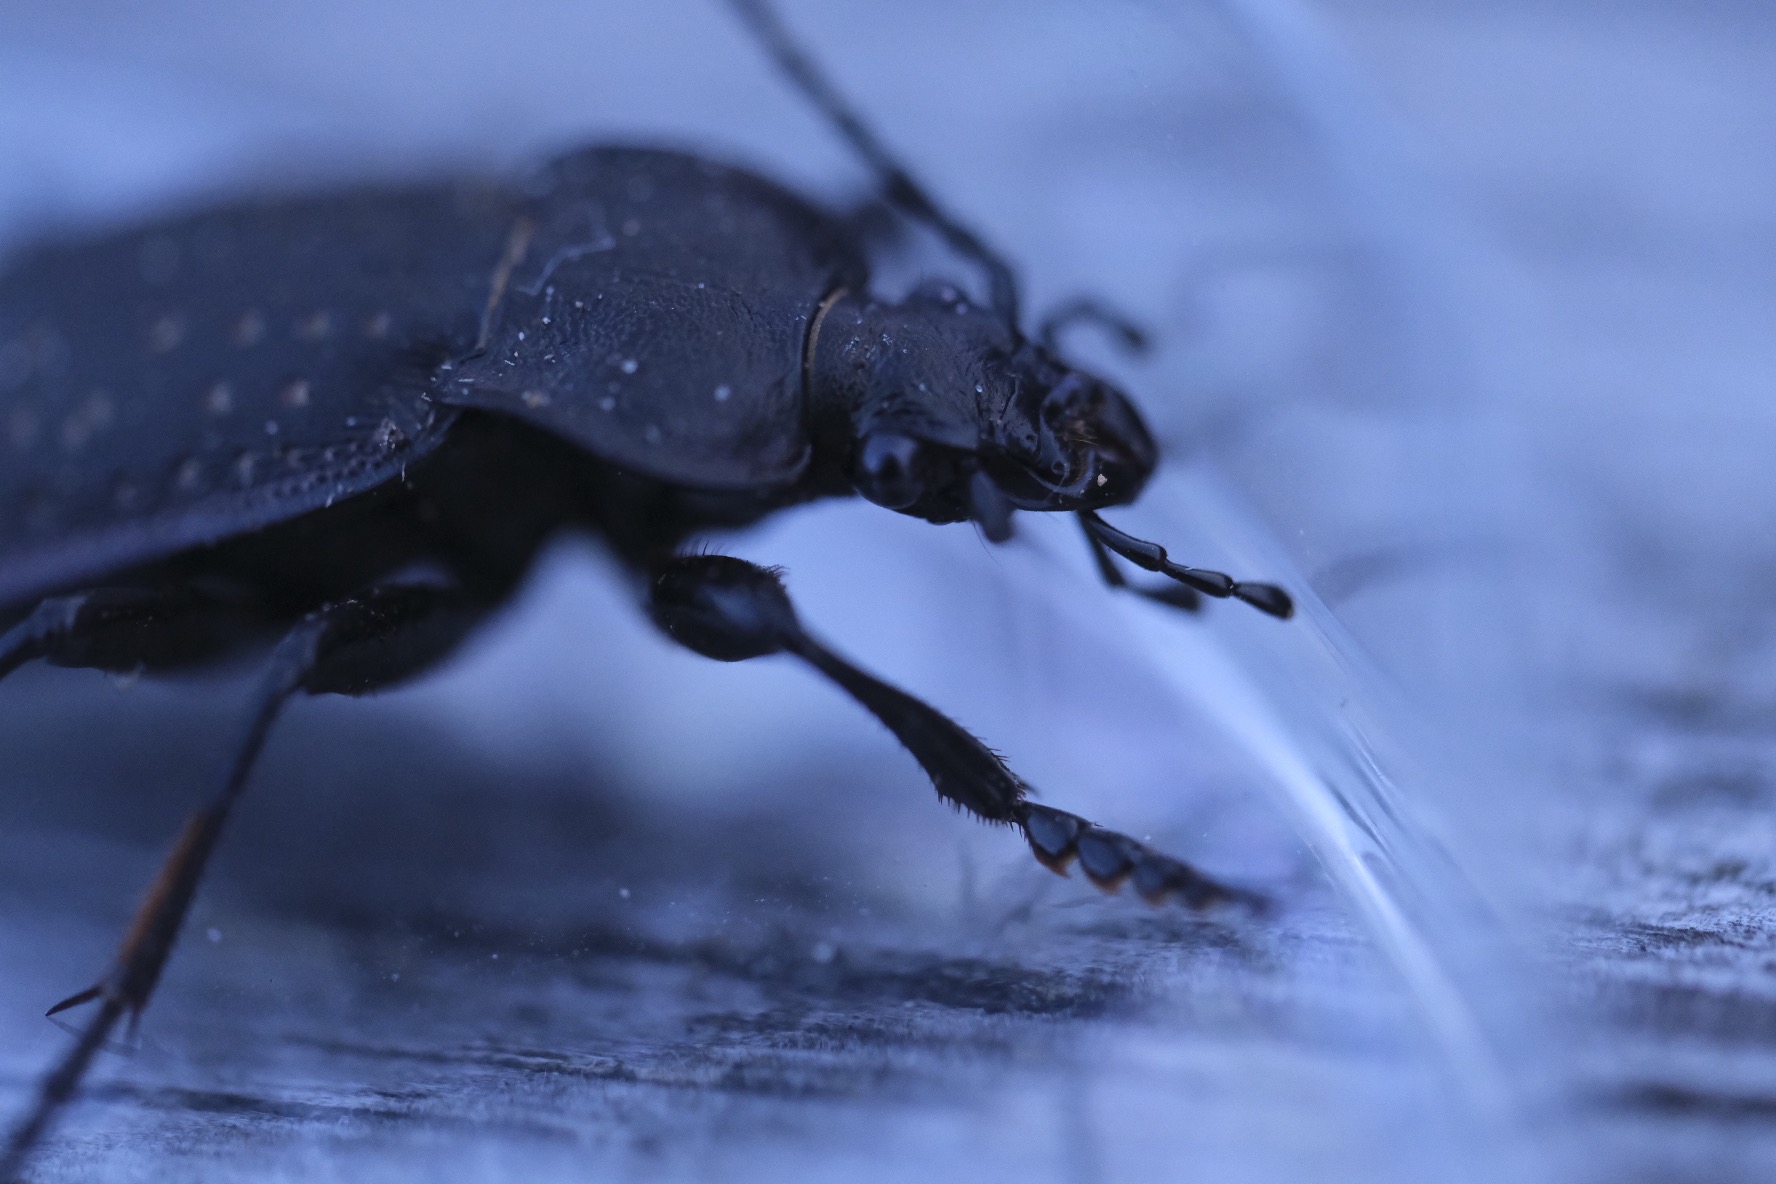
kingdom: Animalia
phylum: Arthropoda
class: Insecta
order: Coleoptera
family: Carabidae
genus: Carabus
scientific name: Carabus hortensis
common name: Guldpletløber
